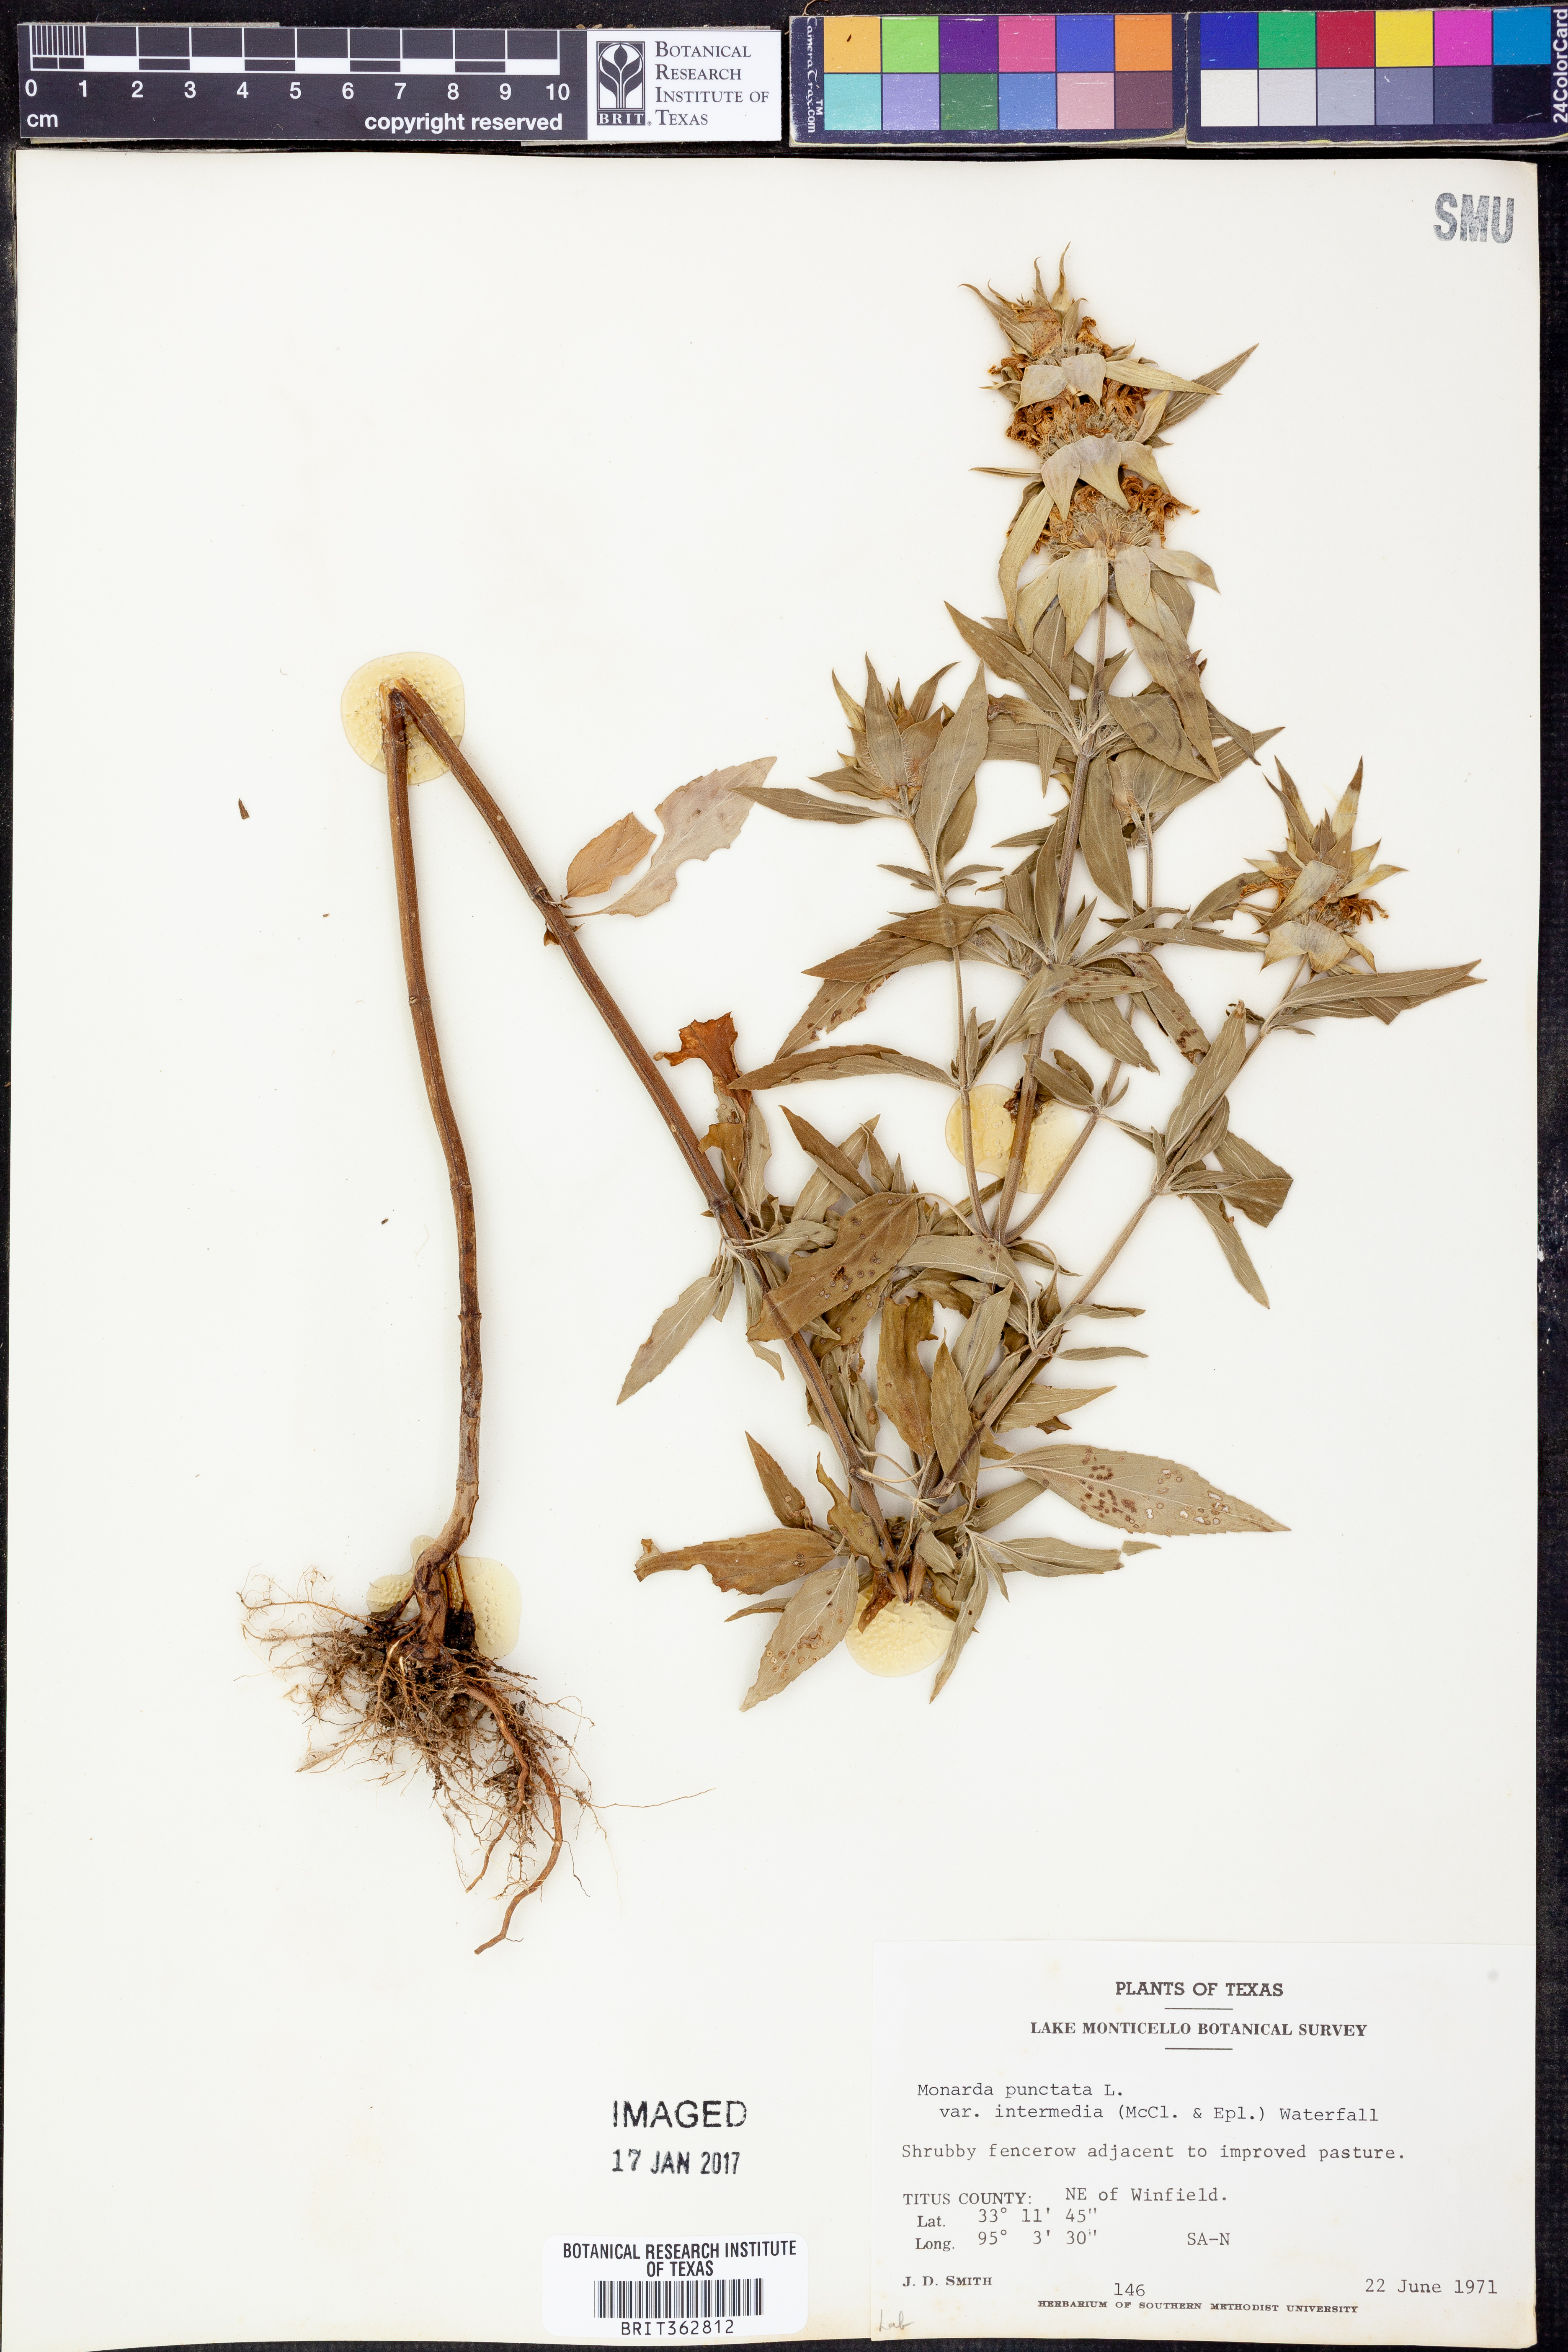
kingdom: Plantae
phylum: Tracheophyta
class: Magnoliopsida
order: Lamiales
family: Lamiaceae
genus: Monarda
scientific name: Monarda punctata
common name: Dotted monarda
